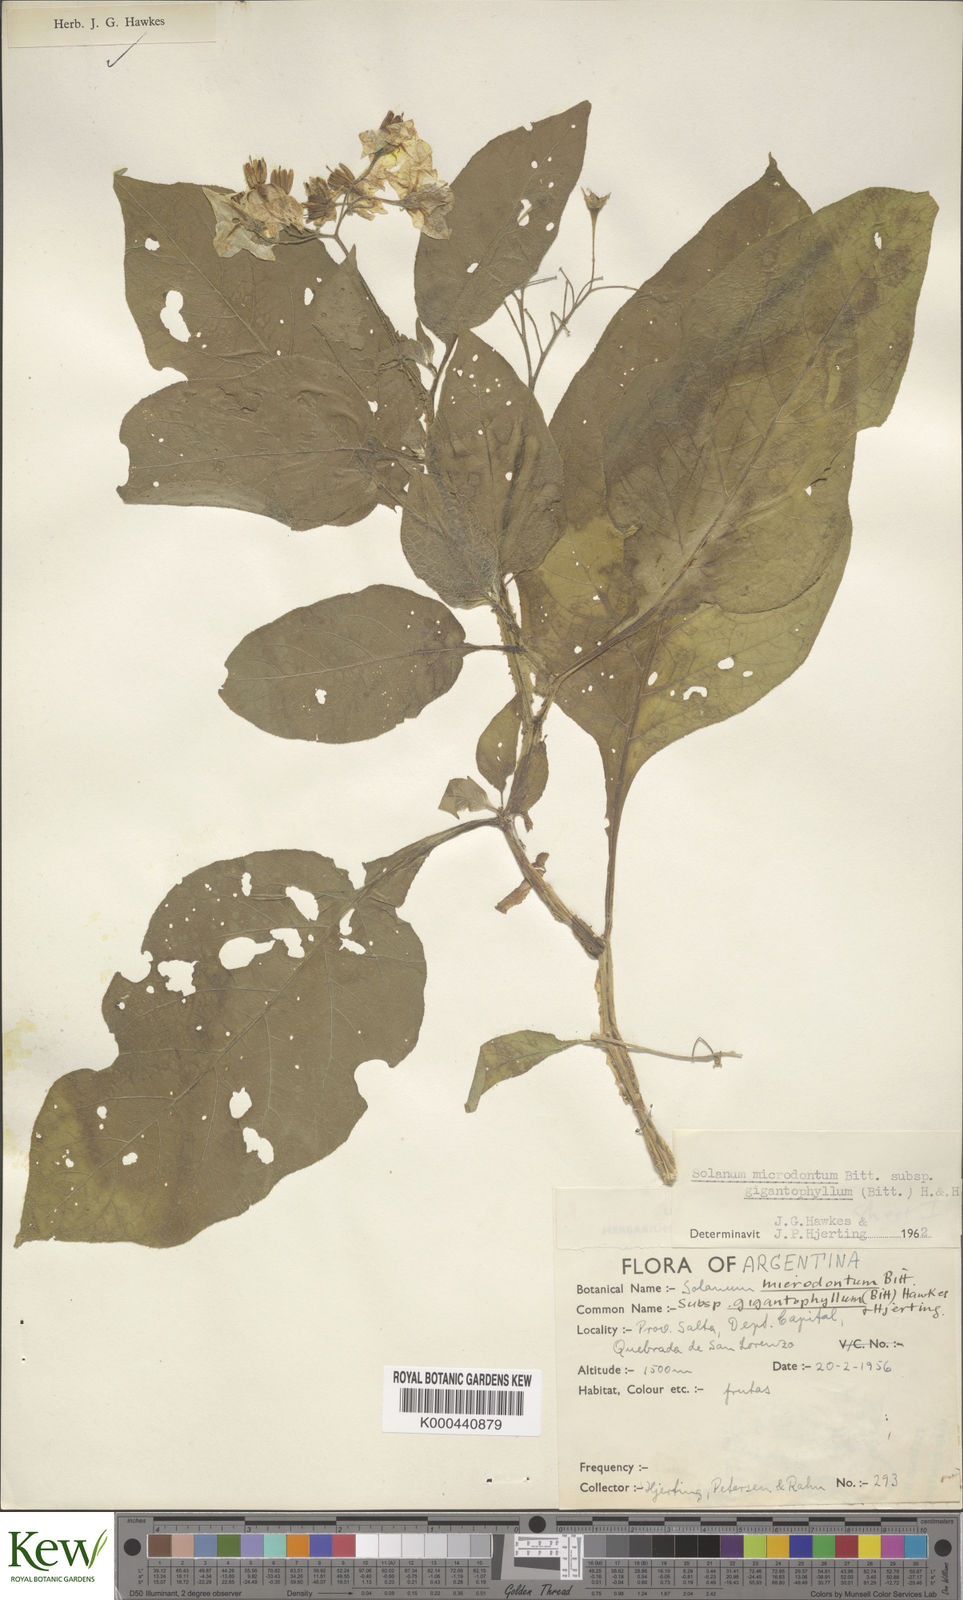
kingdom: Plantae
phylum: Tracheophyta
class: Magnoliopsida
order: Solanales
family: Solanaceae
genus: Solanum
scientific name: Solanum microdontum
